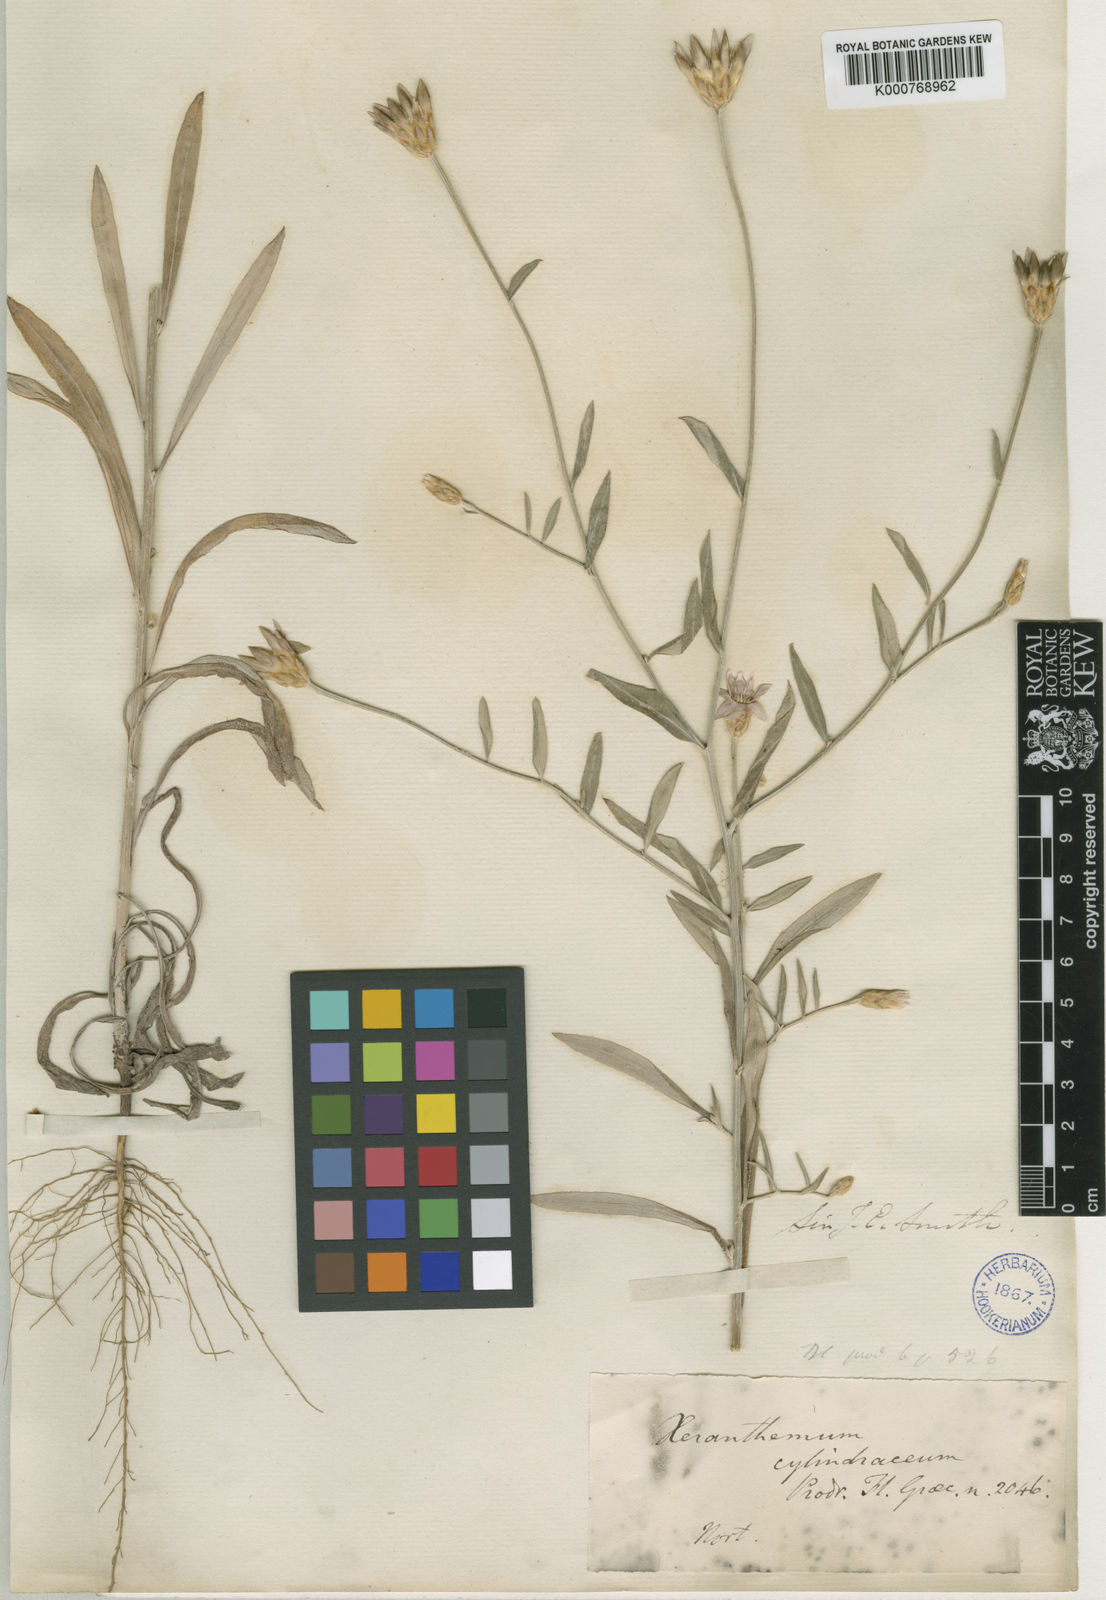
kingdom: Plantae
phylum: Tracheophyta
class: Magnoliopsida
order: Asterales
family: Asteraceae
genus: Xeranthemum
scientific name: Xeranthemum cylindraceum
